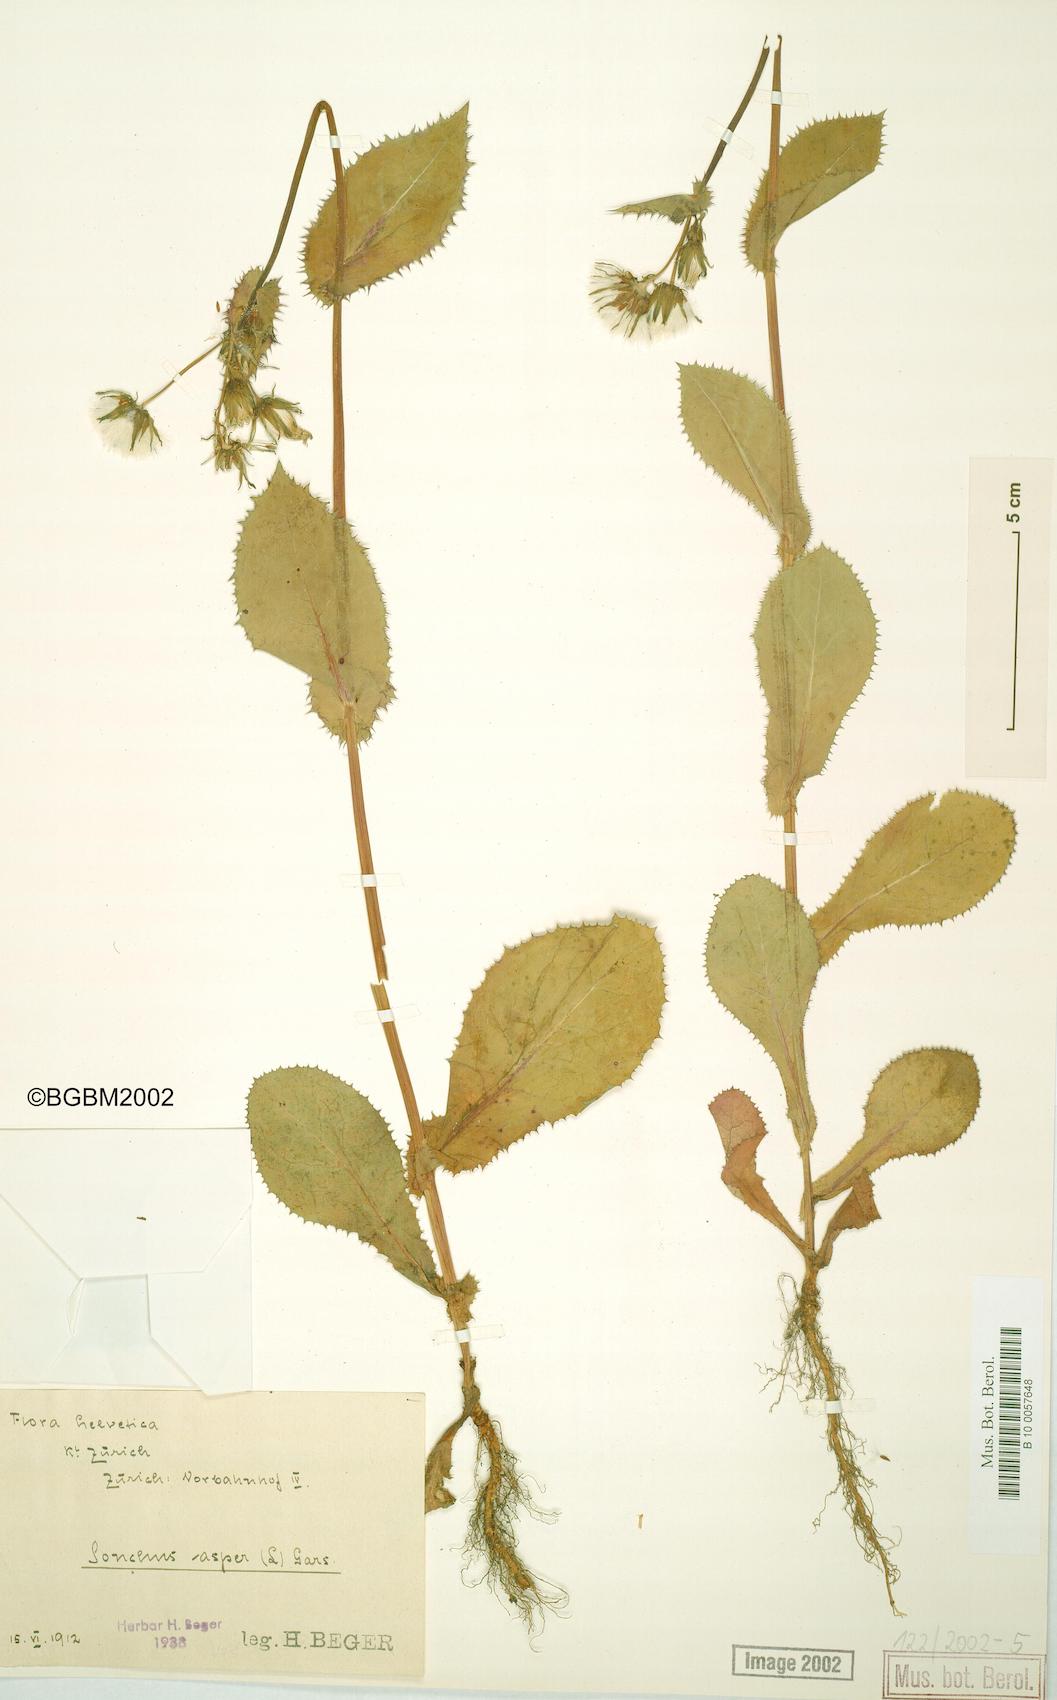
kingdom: Plantae
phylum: Tracheophyta
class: Magnoliopsida
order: Asterales
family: Asteraceae
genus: Sonchus
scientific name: Sonchus asper
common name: Prickly sow-thistle
